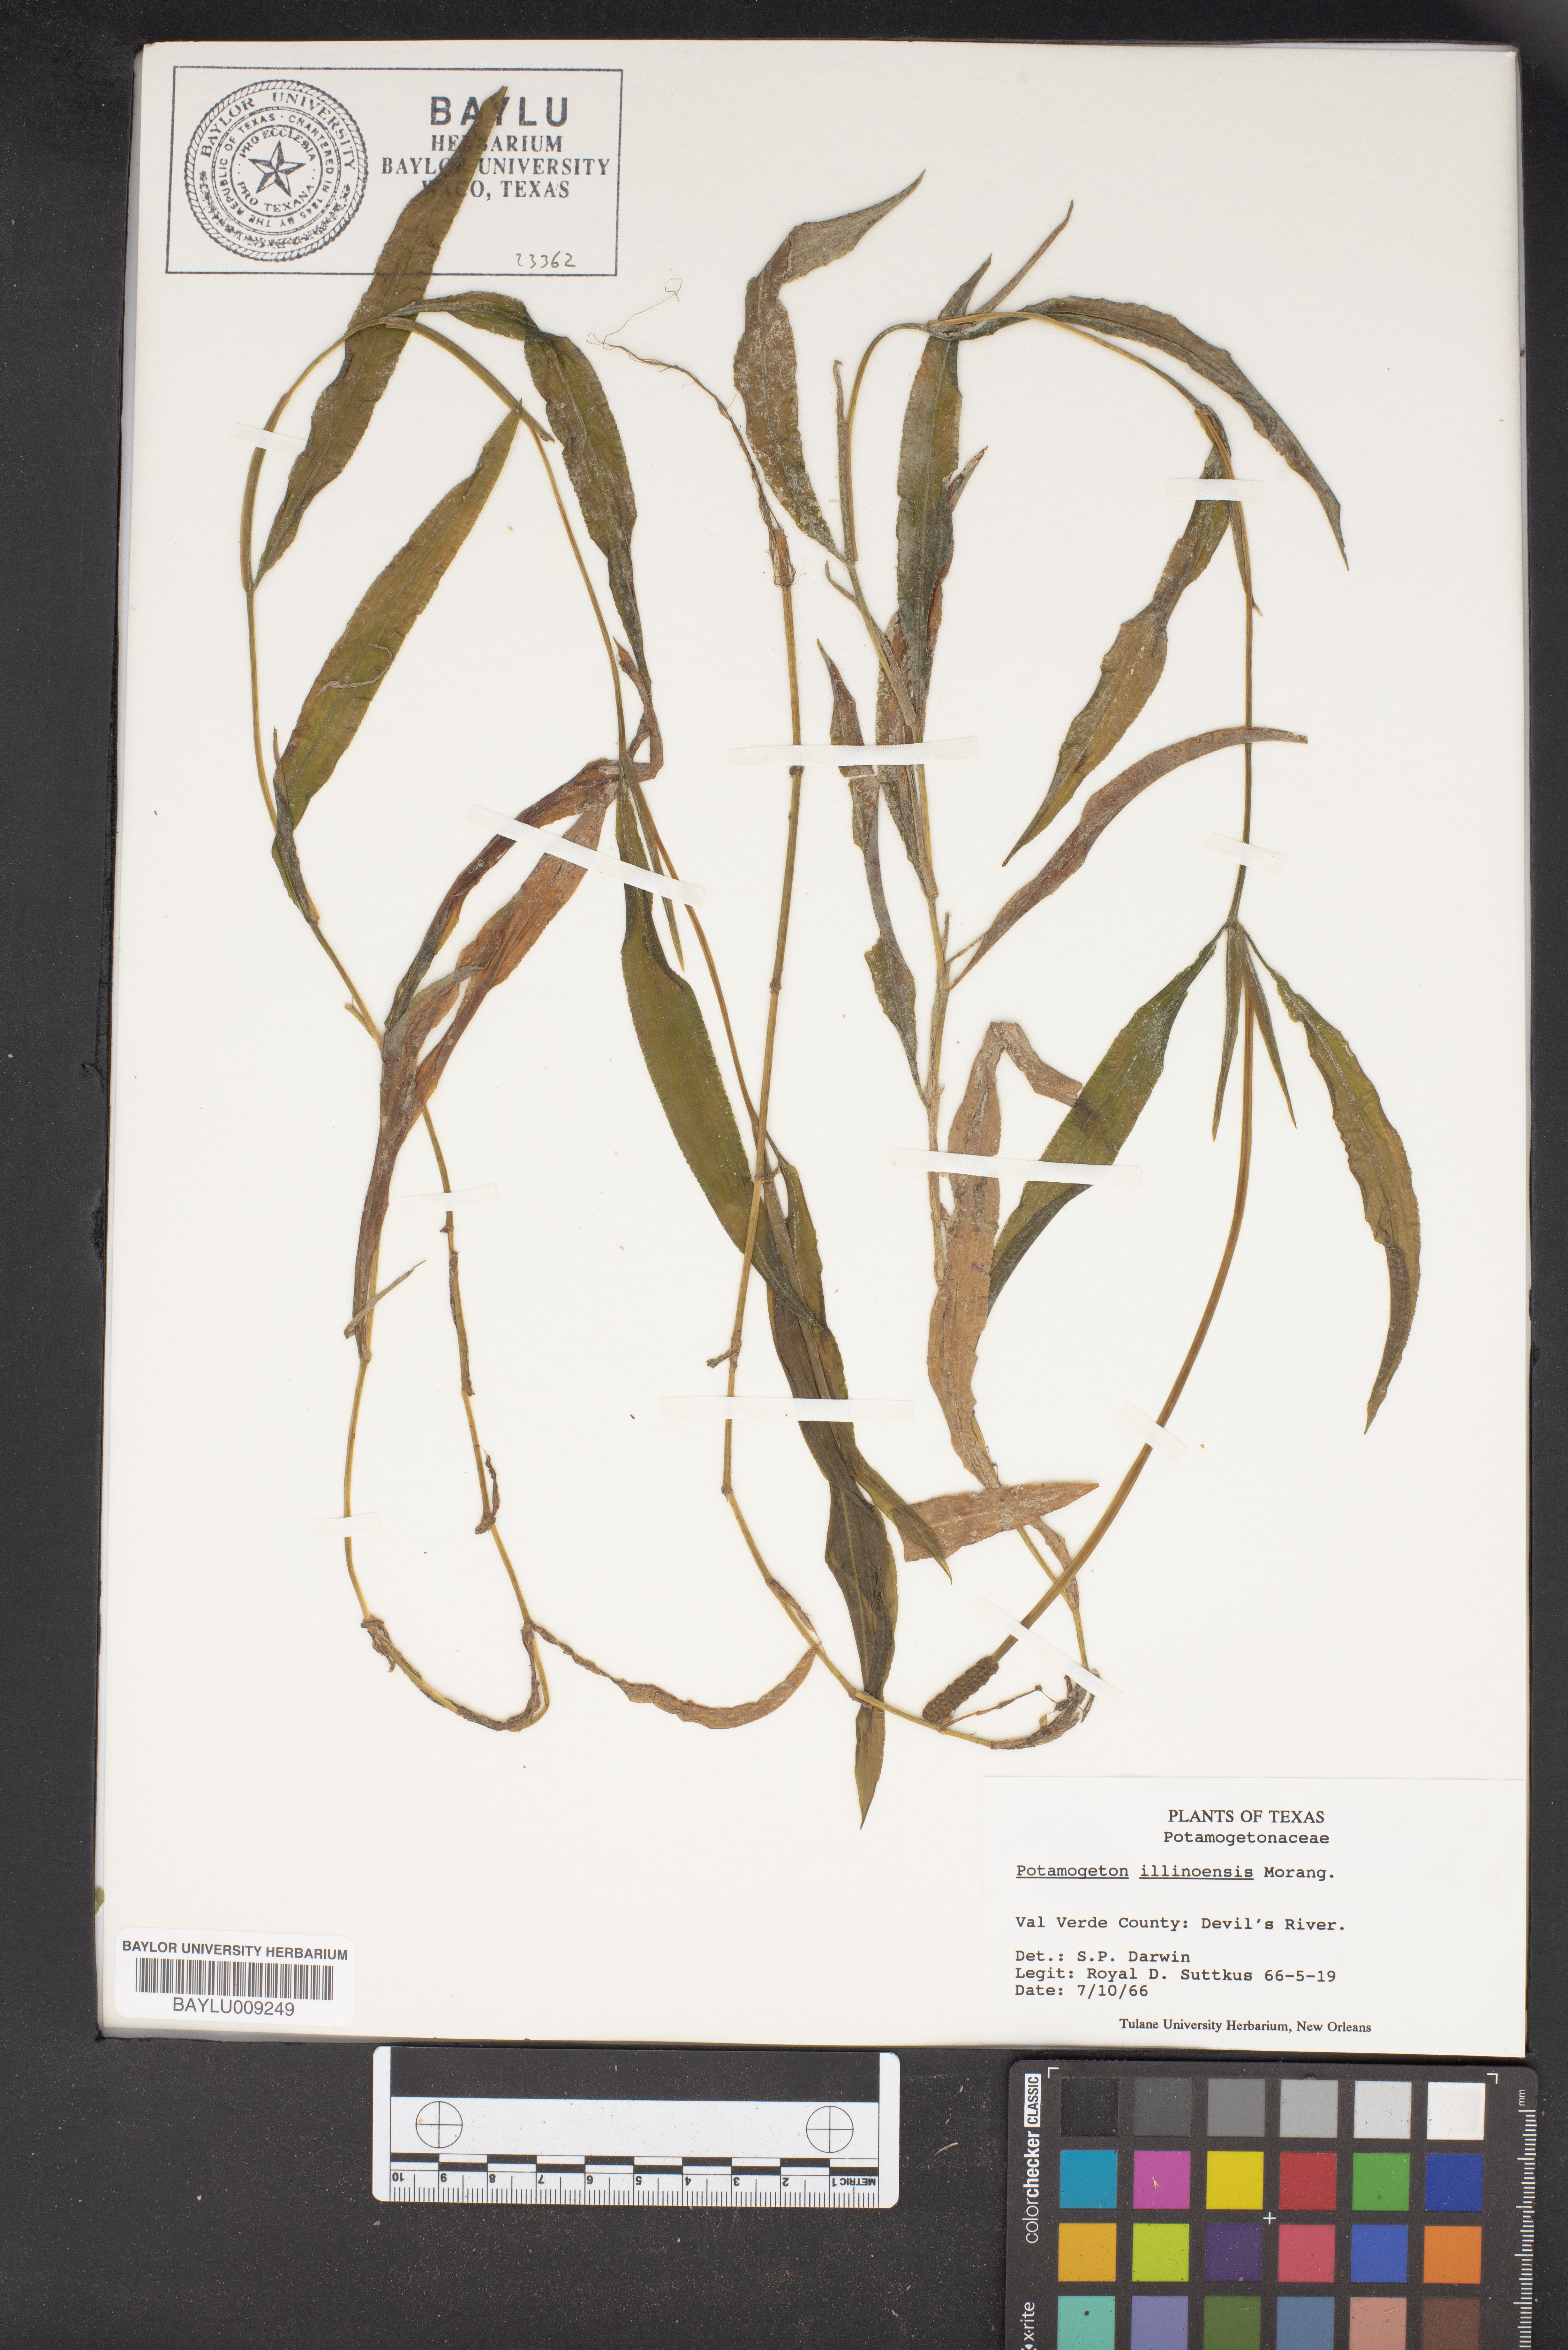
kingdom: Plantae
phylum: Tracheophyta
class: Liliopsida
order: Alismatales
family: Potamogetonaceae
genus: Potamogeton
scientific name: Potamogeton illinoensis
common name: Illinois pondweed
